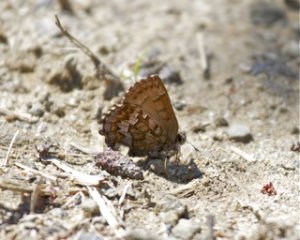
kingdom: Animalia
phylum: Arthropoda
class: Insecta
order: Lepidoptera
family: Lycaenidae
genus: Incisalia
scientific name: Incisalia niphon
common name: Eastern Pine Elfin
